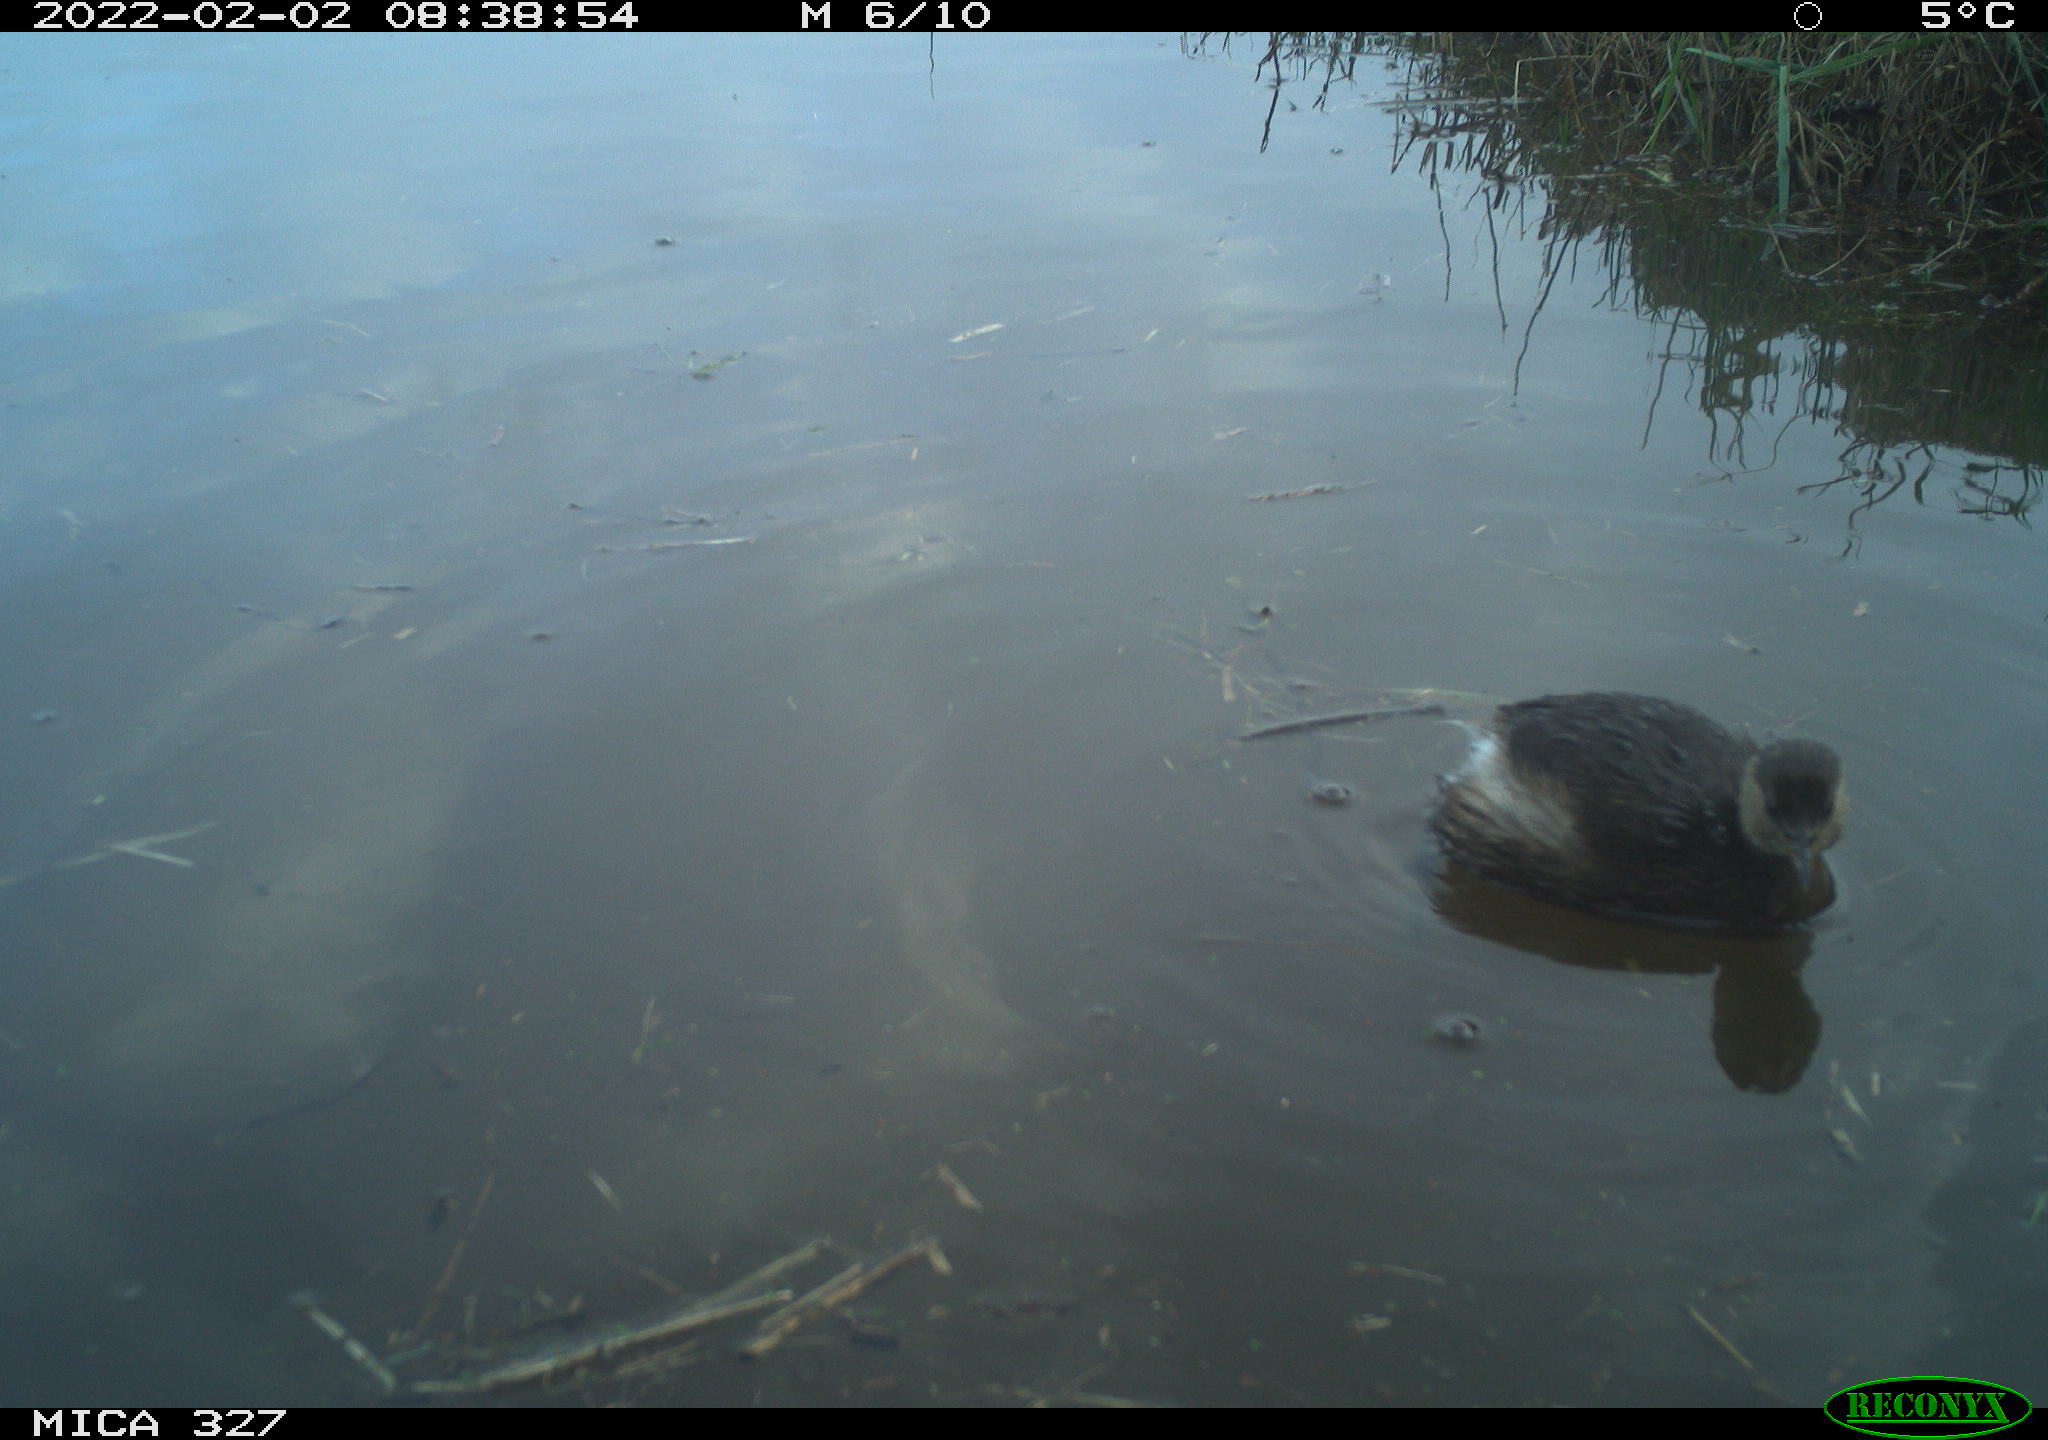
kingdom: Animalia
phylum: Chordata
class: Aves
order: Podicipediformes
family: Podicipedidae
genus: Tachybaptus
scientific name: Tachybaptus ruficollis
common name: Little grebe
